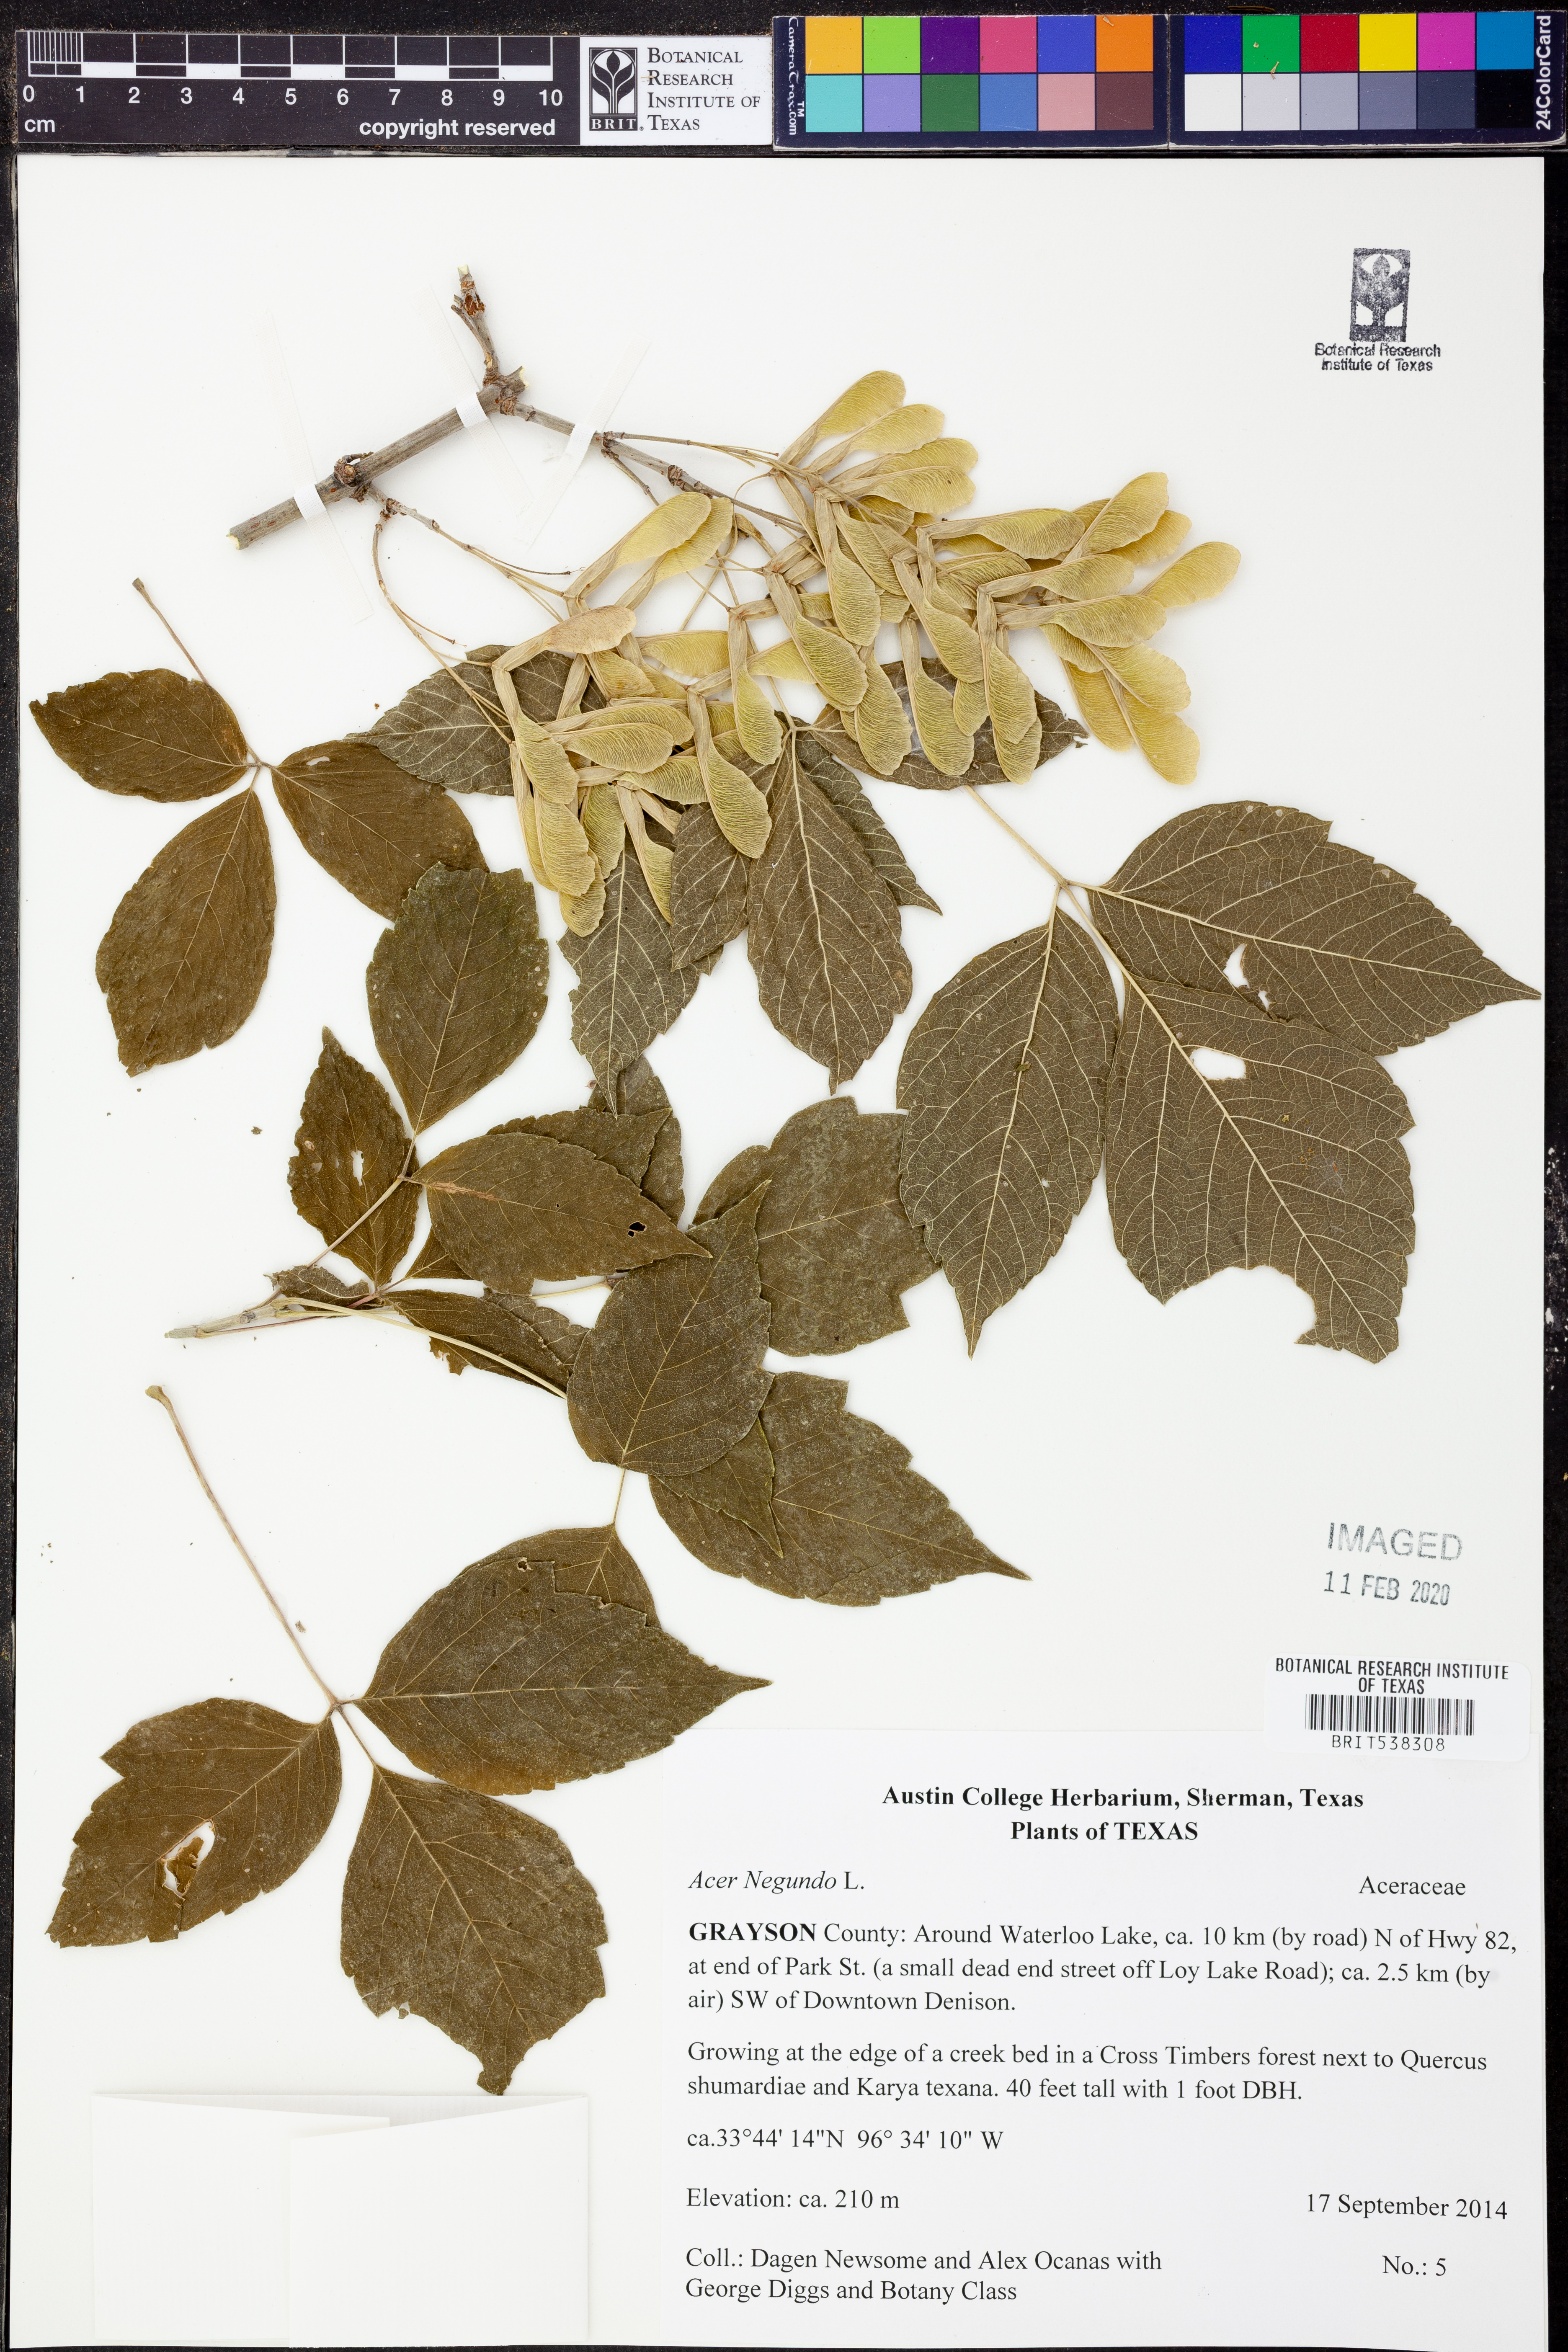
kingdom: Plantae
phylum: Tracheophyta
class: Magnoliopsida
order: Sapindales
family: Sapindaceae
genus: Acer
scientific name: Acer negundo
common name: Ashleaf maple
